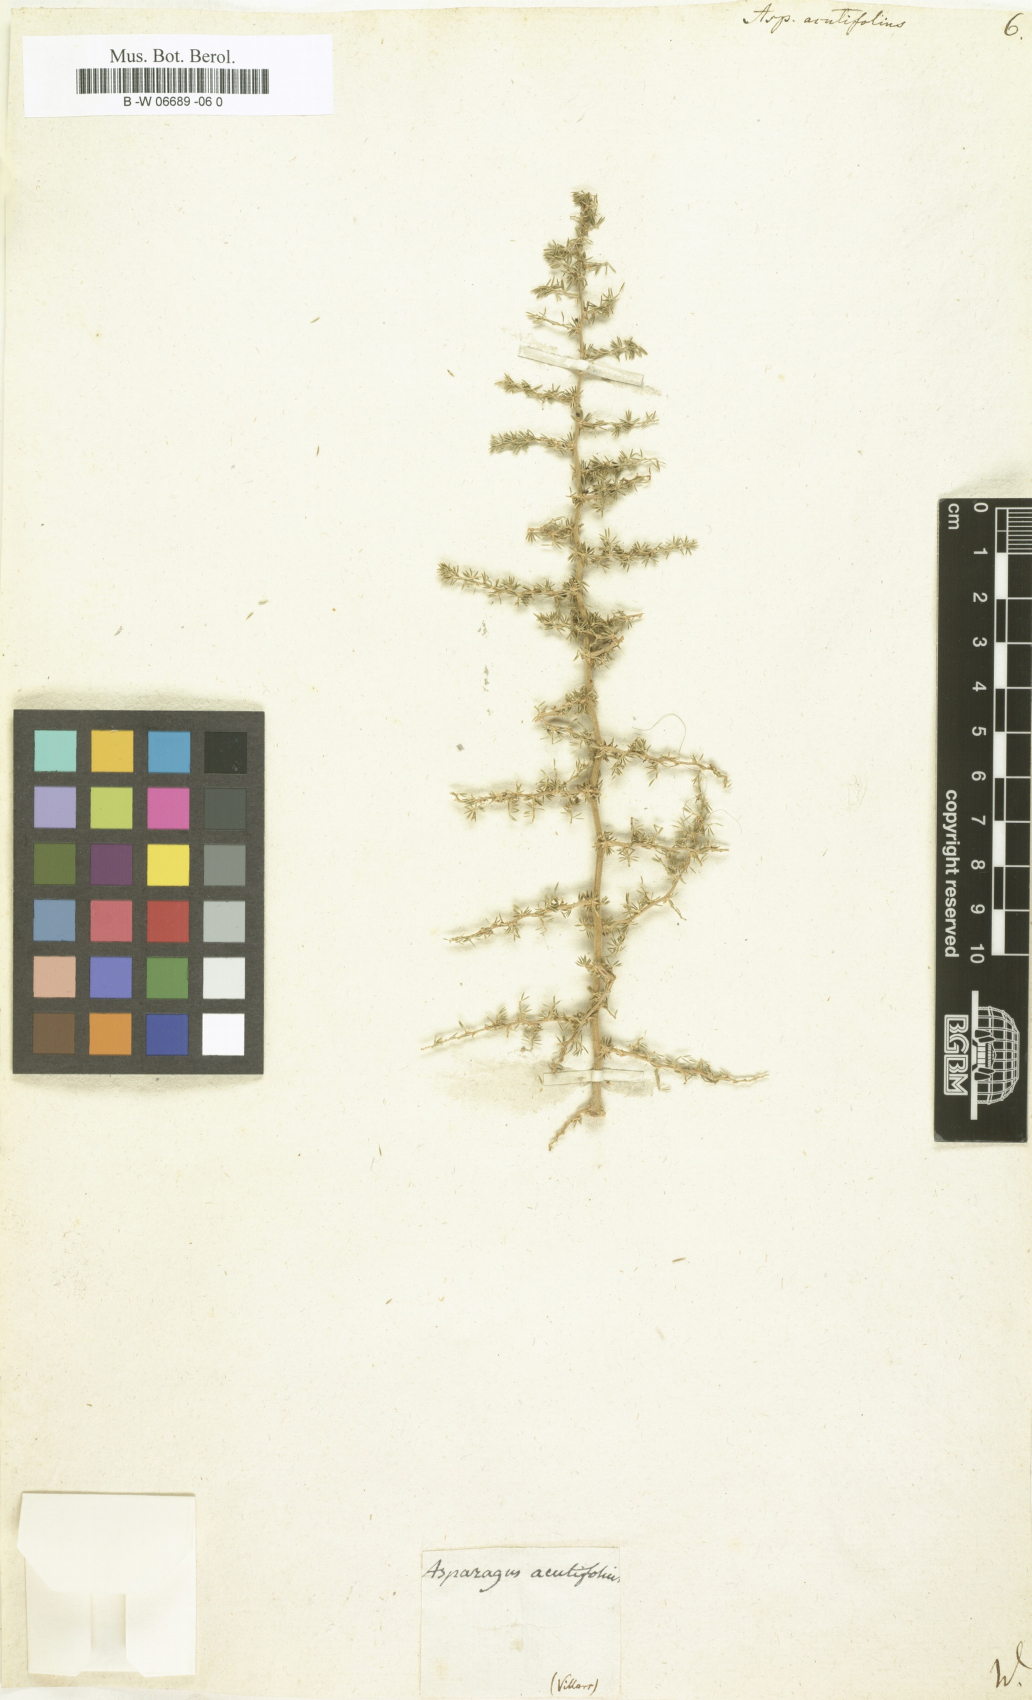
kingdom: Plantae
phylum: Tracheophyta
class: Liliopsida
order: Asparagales
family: Asparagaceae
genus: Asparagus
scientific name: Asparagus acutifolius
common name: Wild asparagus
